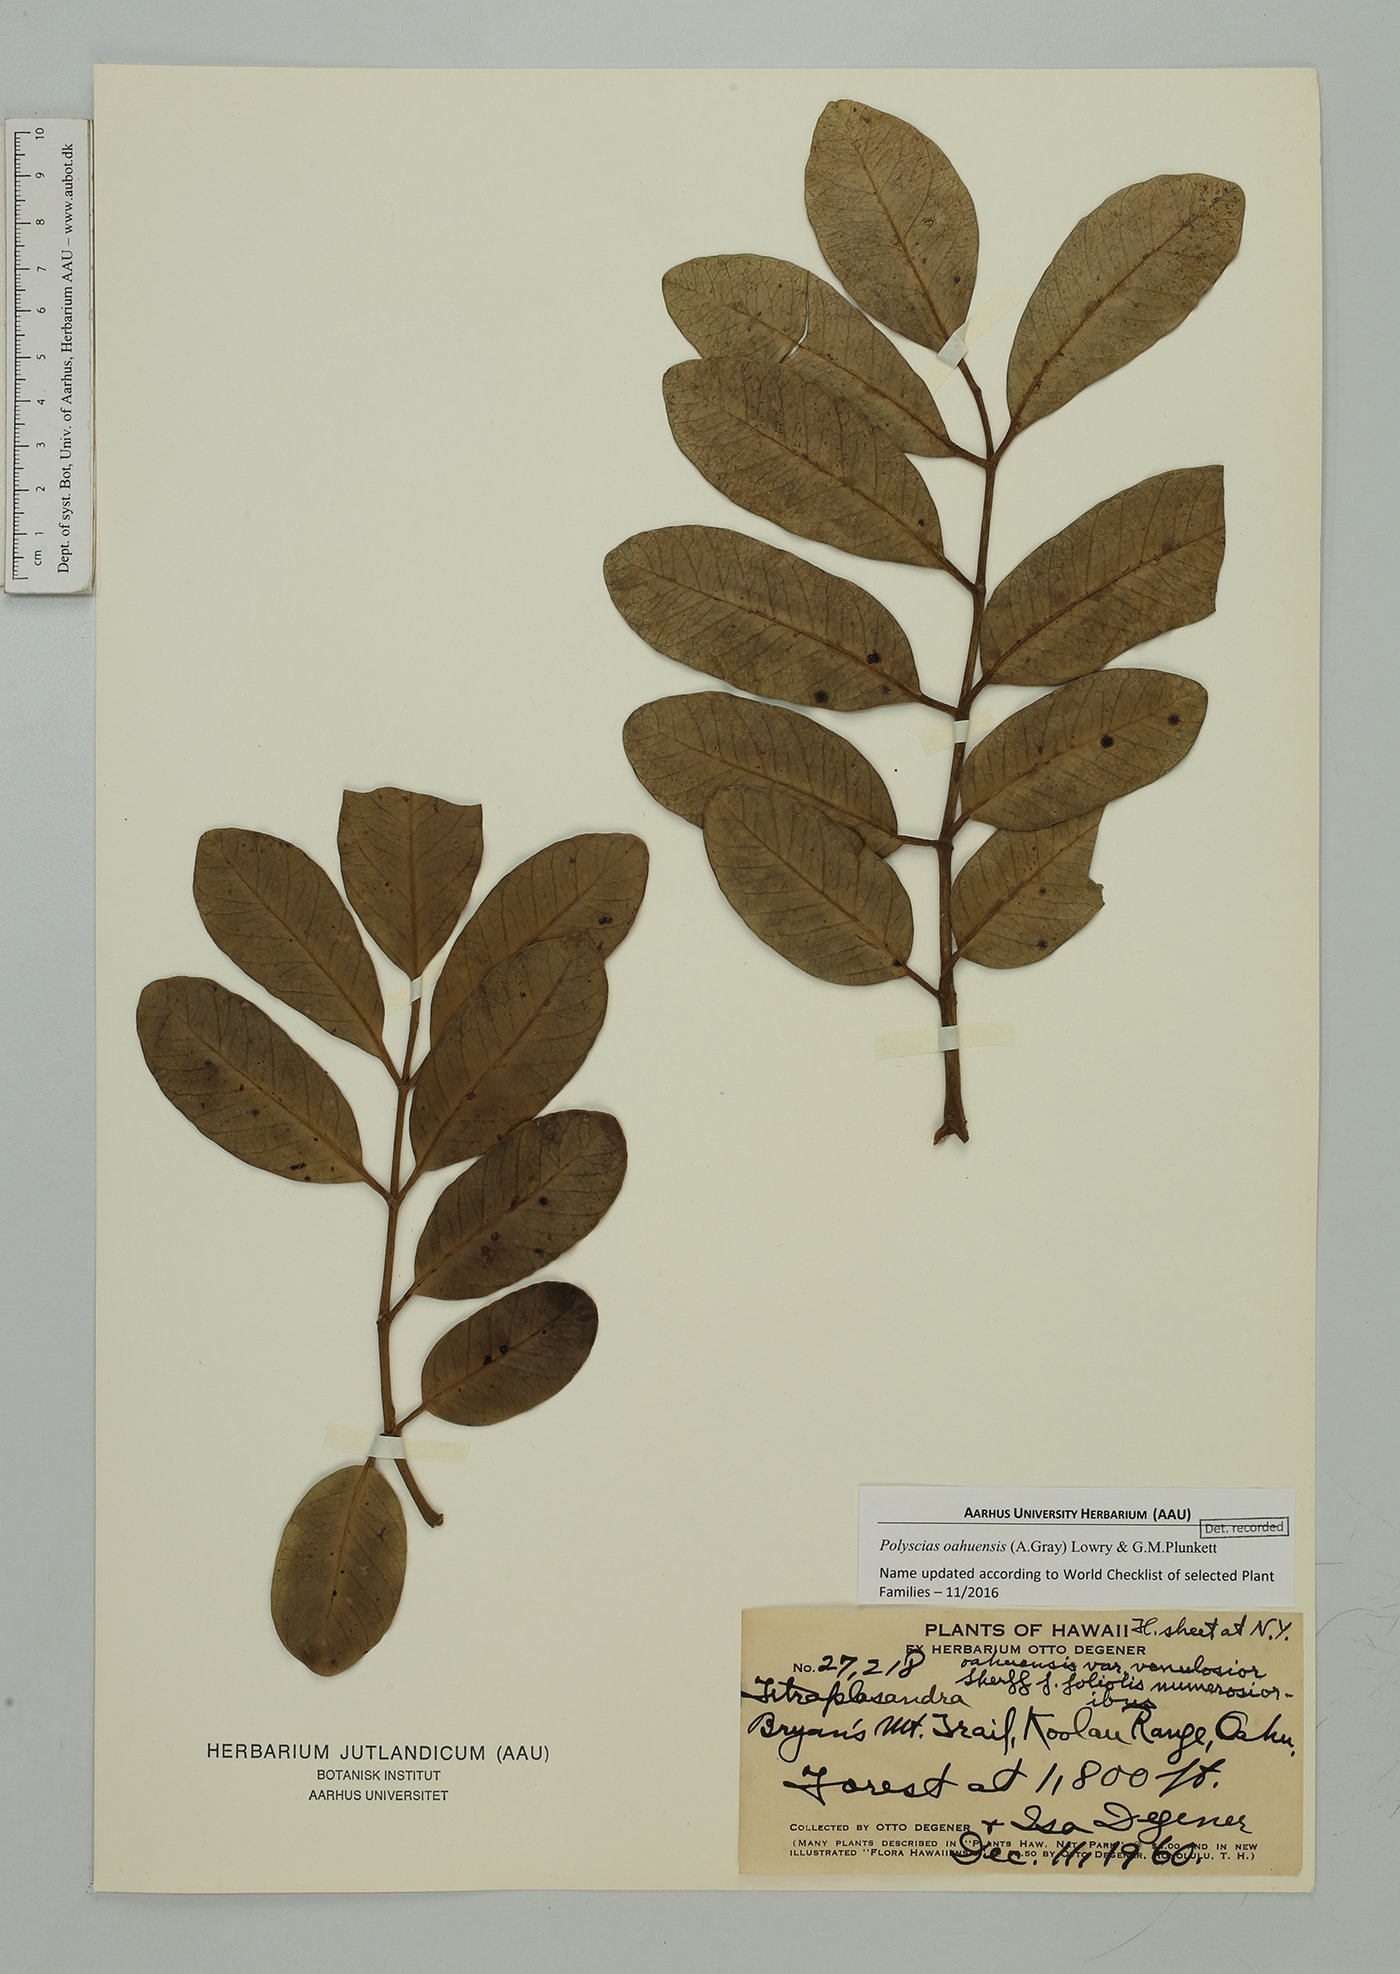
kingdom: Plantae
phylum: Tracheophyta
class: Magnoliopsida
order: Apiales
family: Araliaceae
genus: Polyscias
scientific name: Polyscias oahuensis
